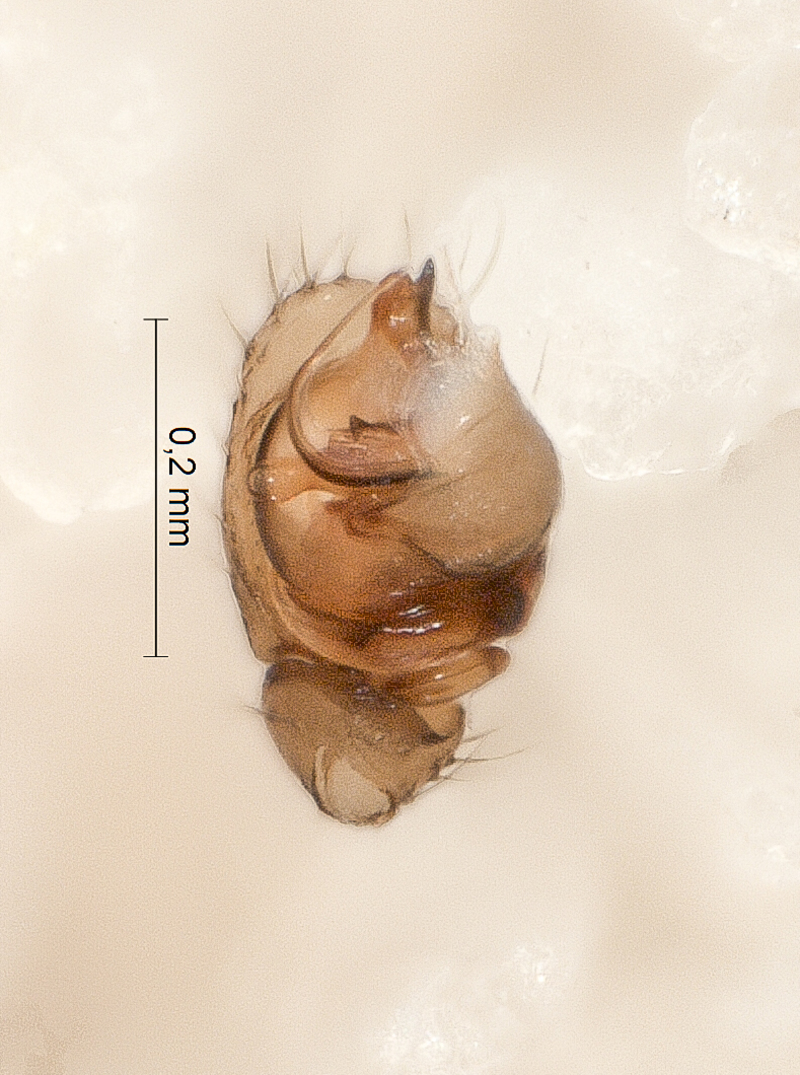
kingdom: Animalia
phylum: Arthropoda
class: Arachnida
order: Araneae
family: Linyphiidae
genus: Maso
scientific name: Maso sundevalli
